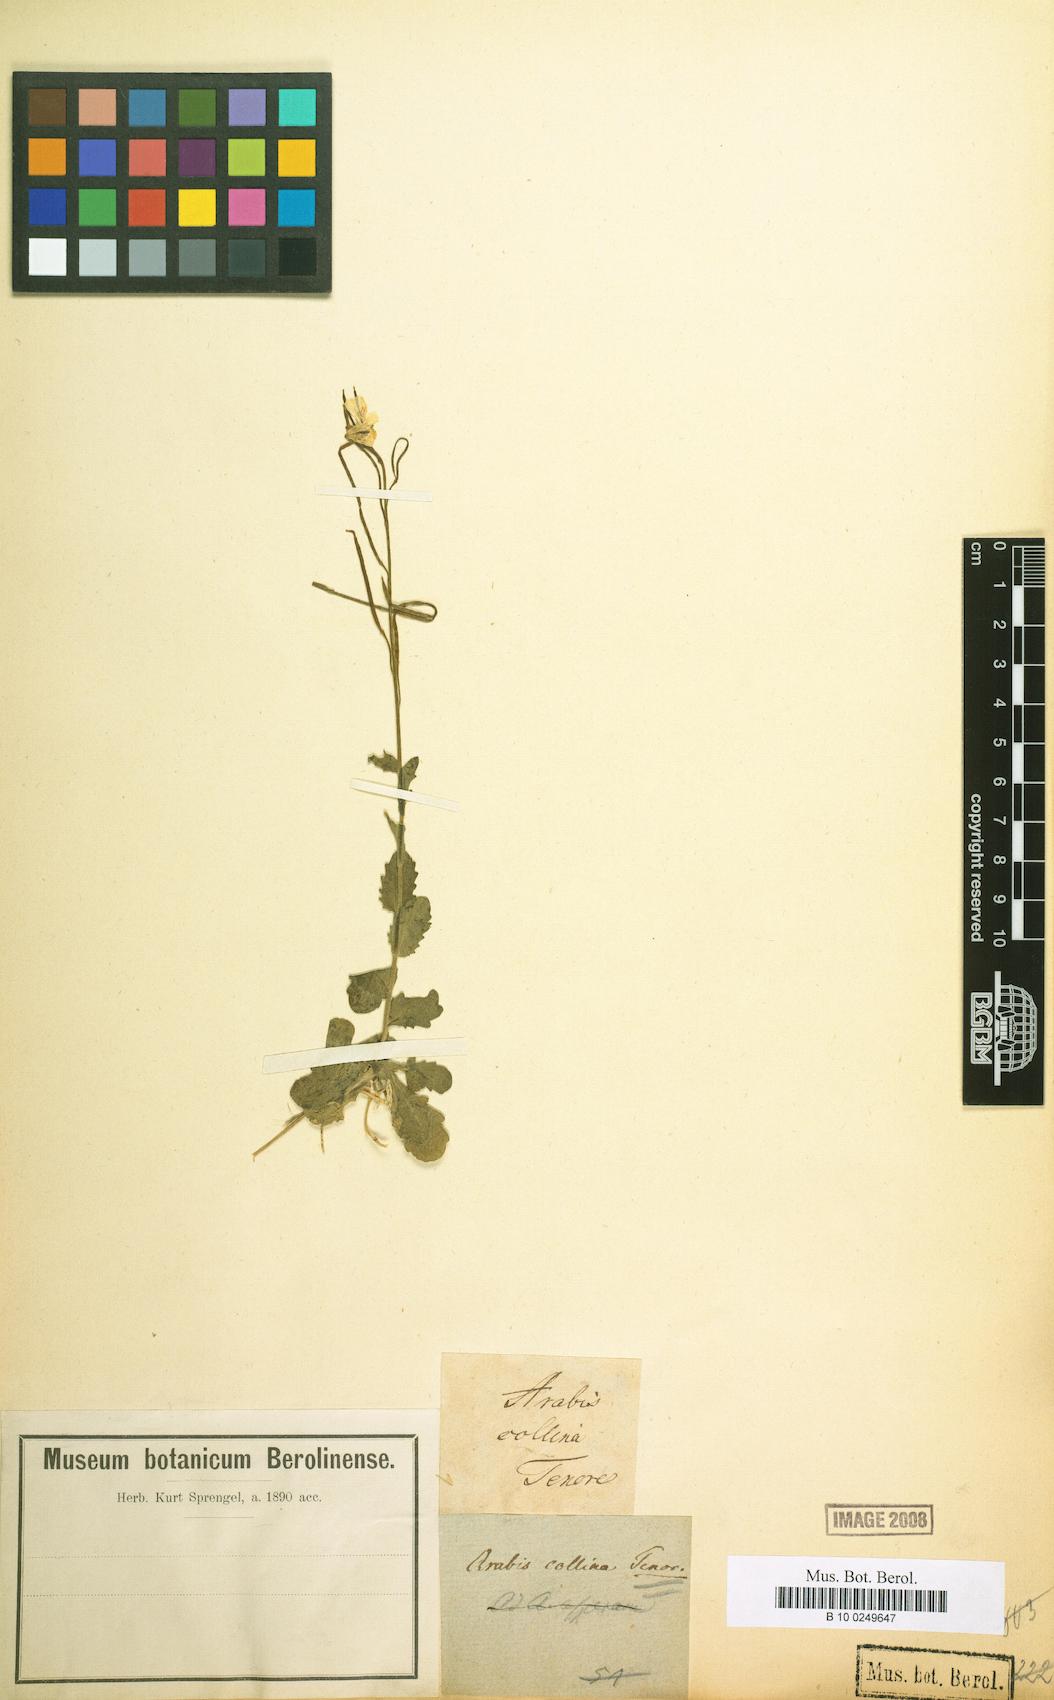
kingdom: Plantae
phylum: Tracheophyta
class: Magnoliopsida
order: Brassicales
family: Brassicaceae
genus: Arabis
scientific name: Arabis collina
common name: Rosy cress
